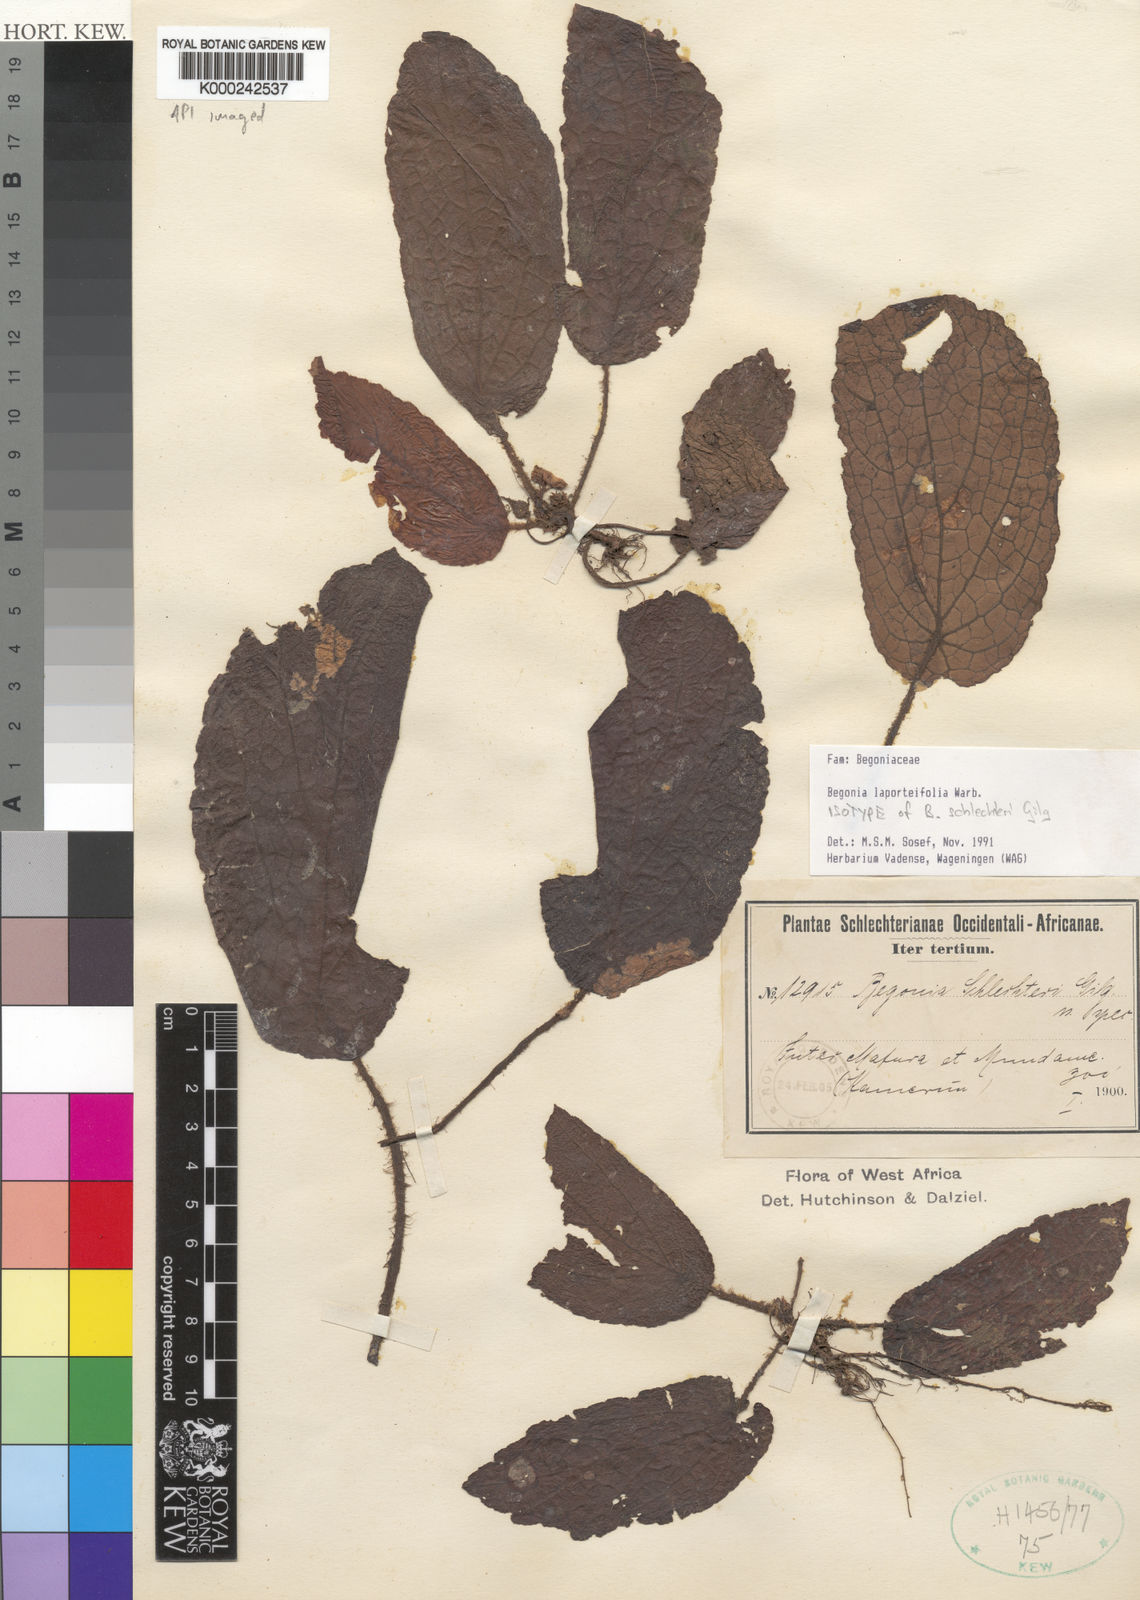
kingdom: Plantae
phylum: Tracheophyta
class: Magnoliopsida
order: Cucurbitales
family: Begoniaceae
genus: Begonia
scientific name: Begonia laporteifolia
